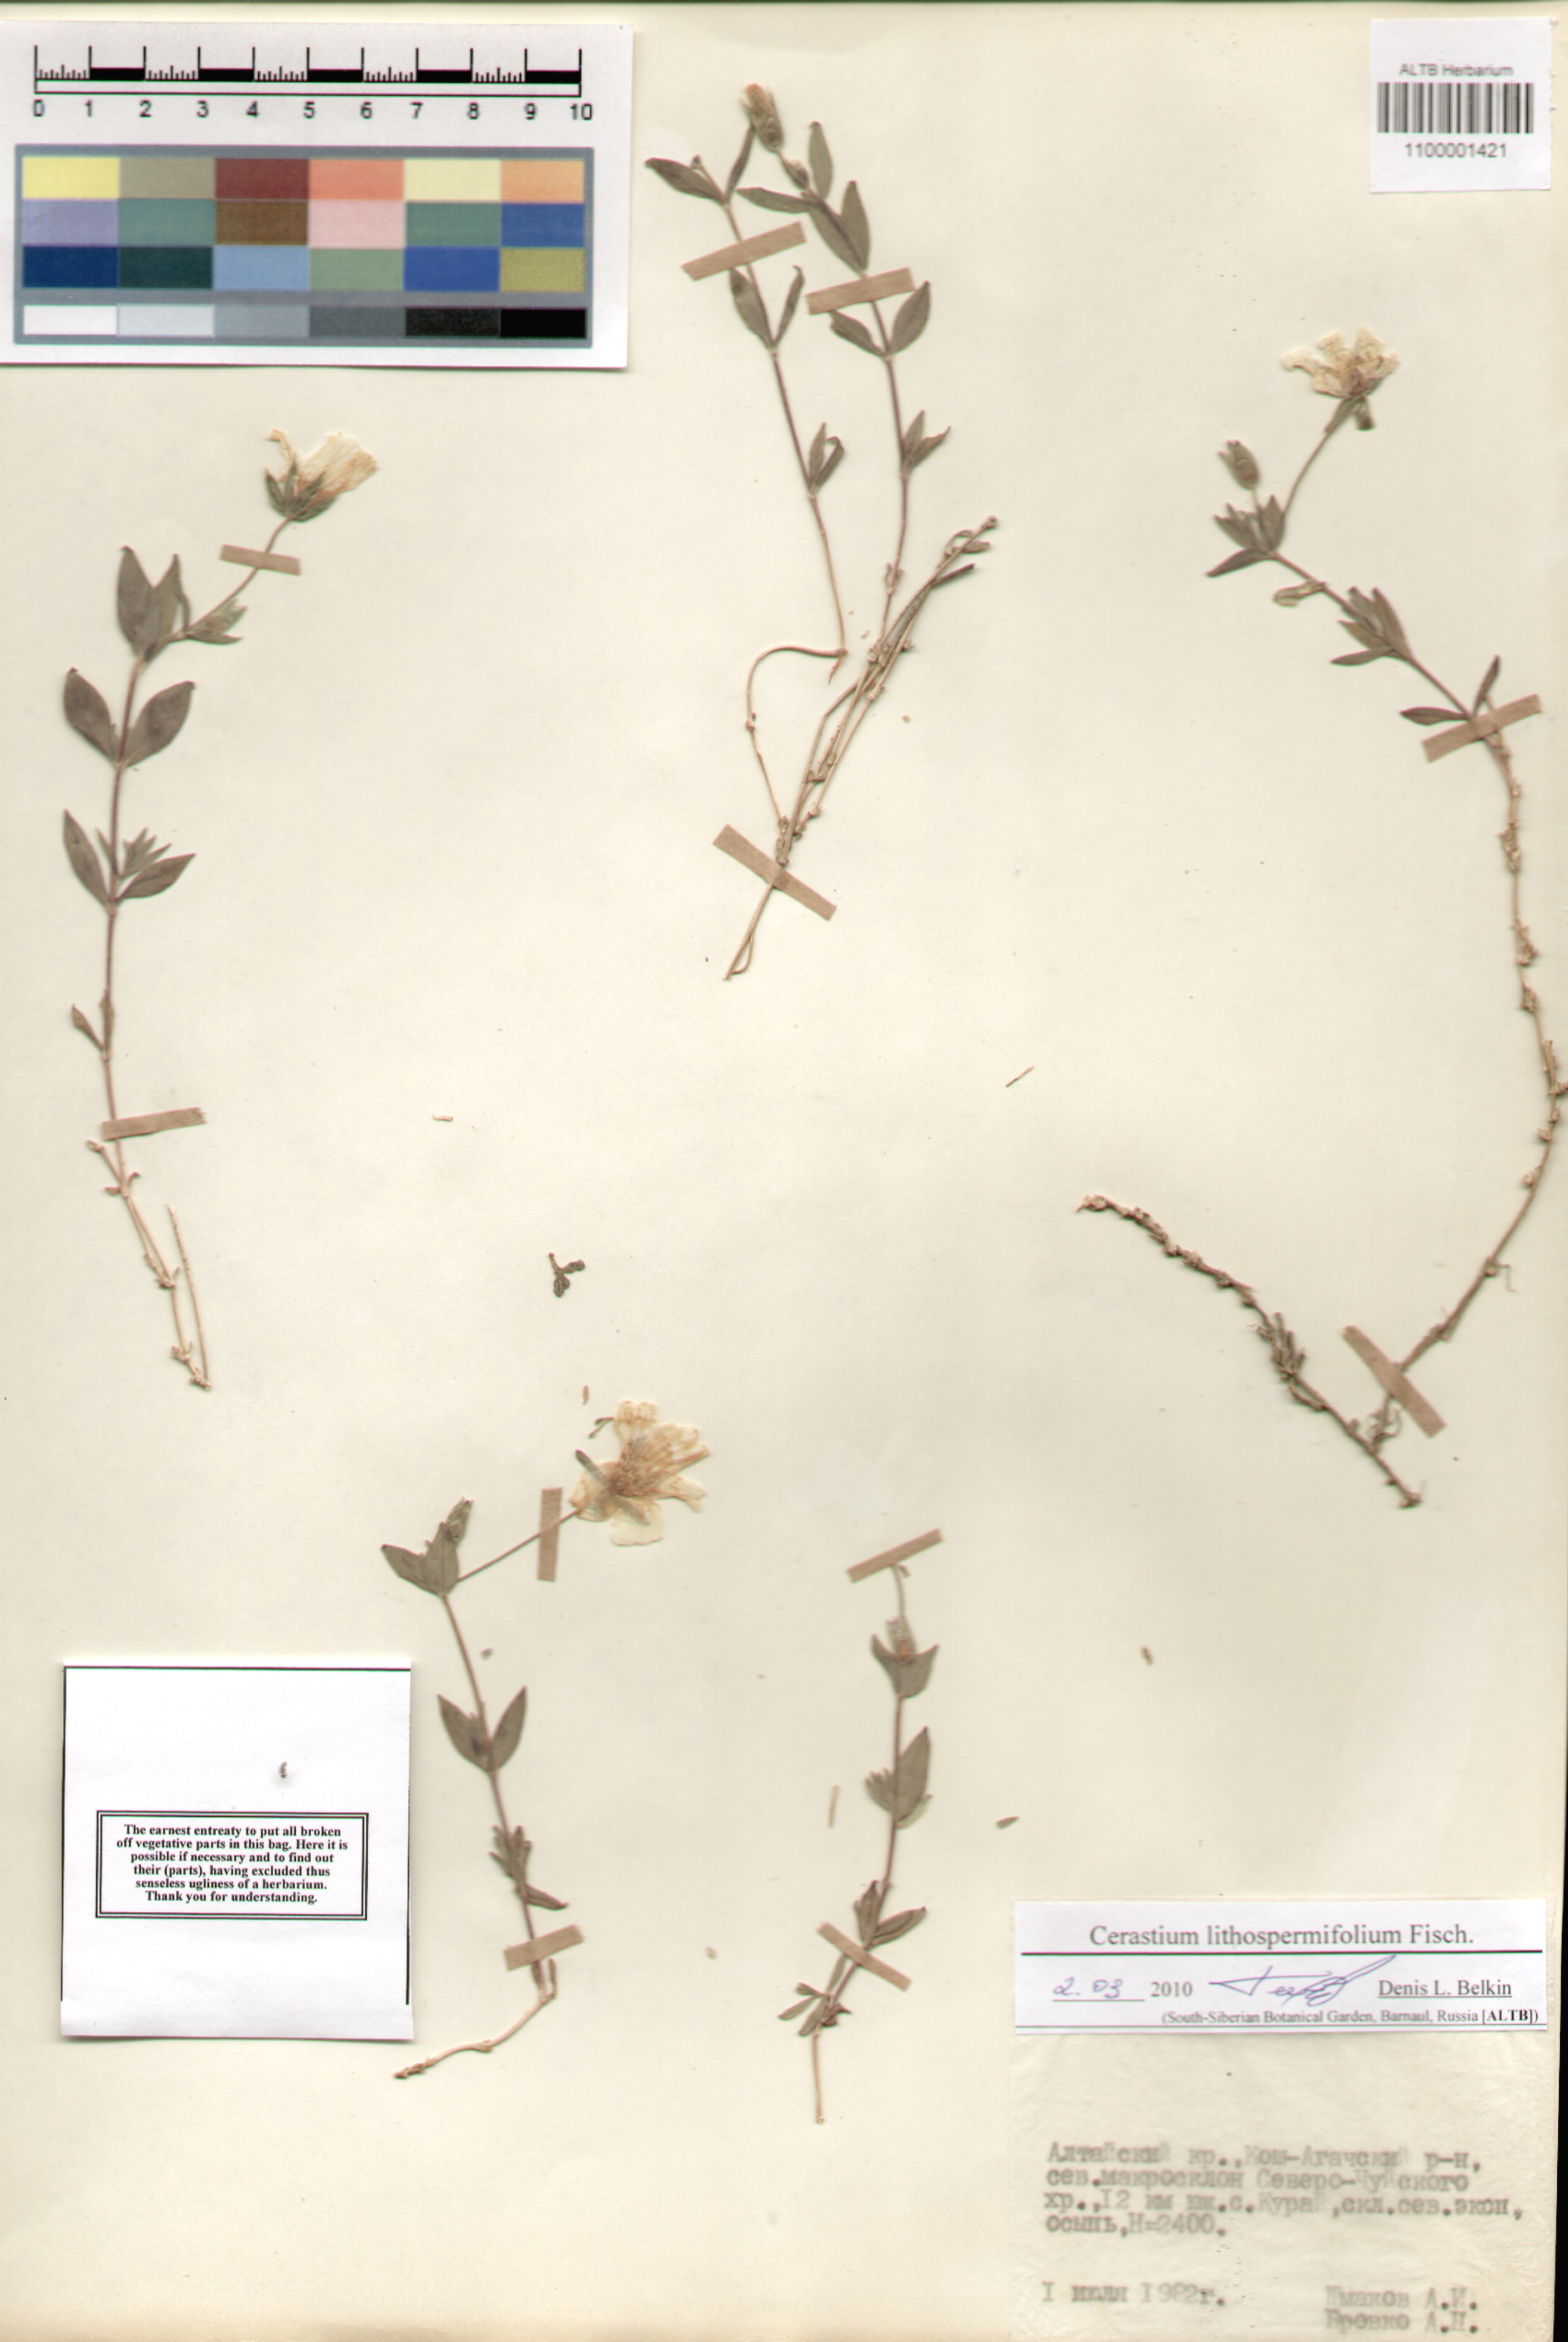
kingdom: Plantae
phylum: Tracheophyta
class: Magnoliopsida
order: Caryophyllales
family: Caryophyllaceae
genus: Cerastium
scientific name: Cerastium lithospermifolium
